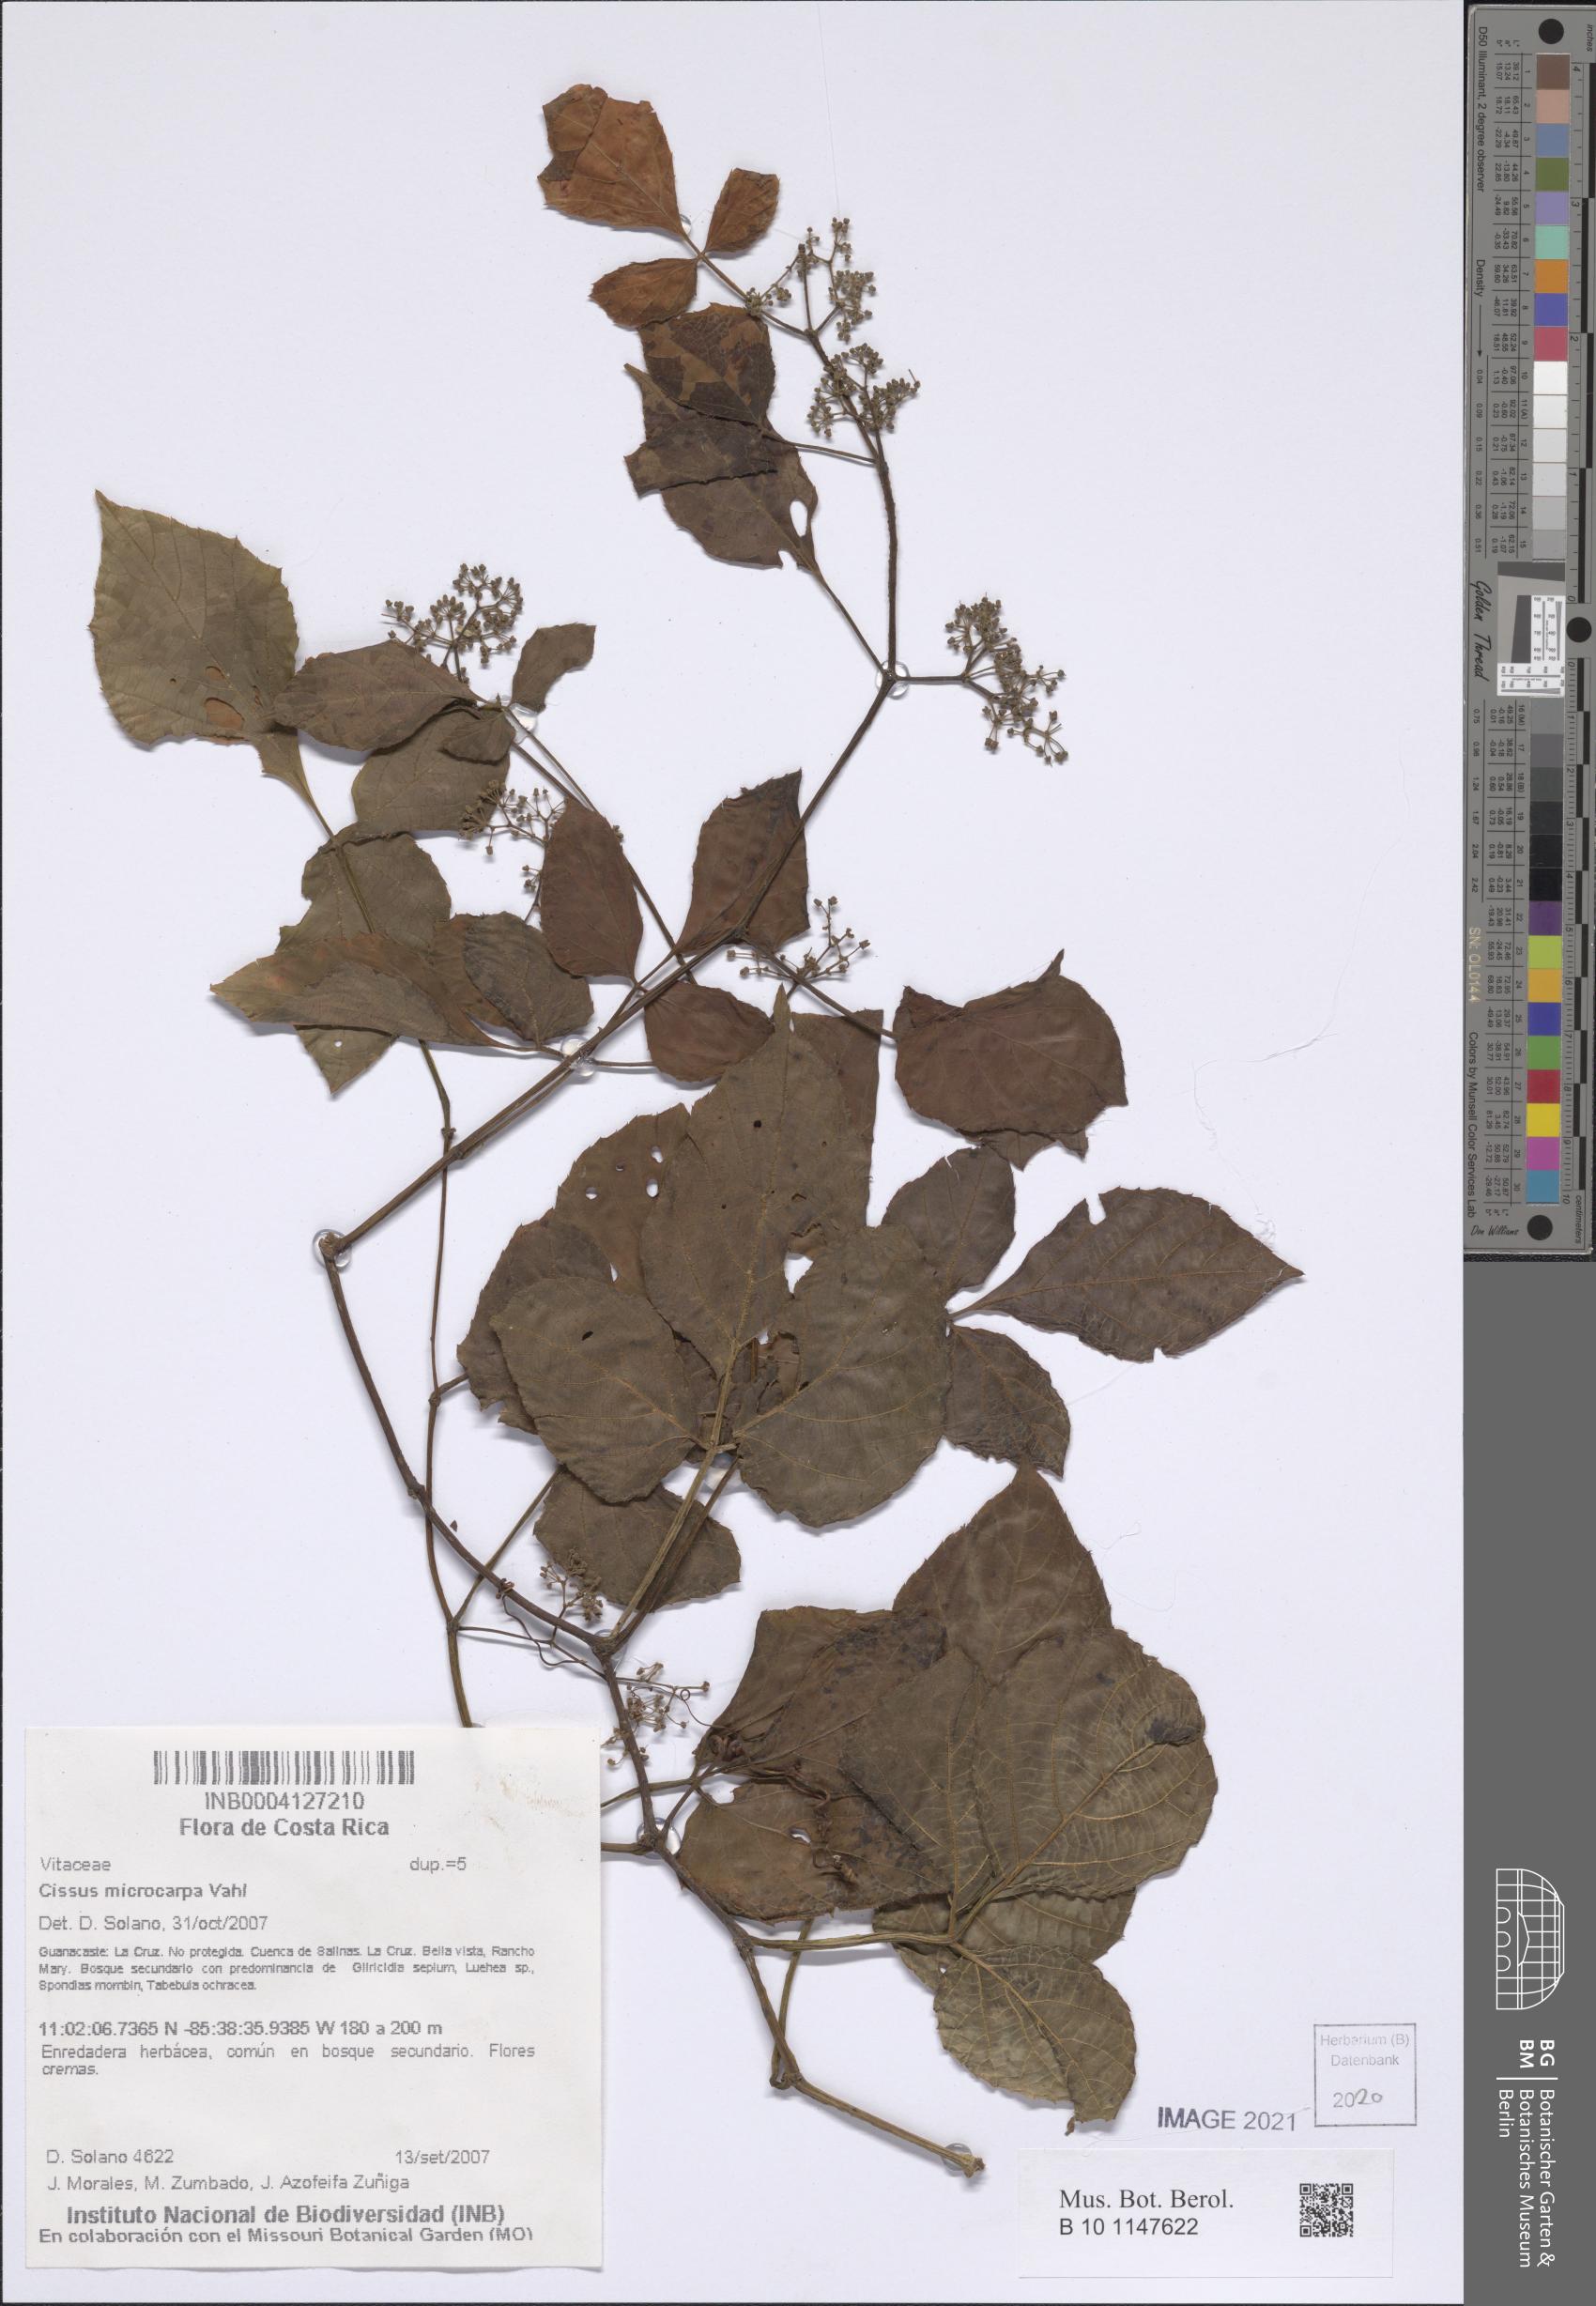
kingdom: Plantae
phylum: Tracheophyta
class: Magnoliopsida
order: Vitales
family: Vitaceae
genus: Cissus
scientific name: Cissus microcarpa
